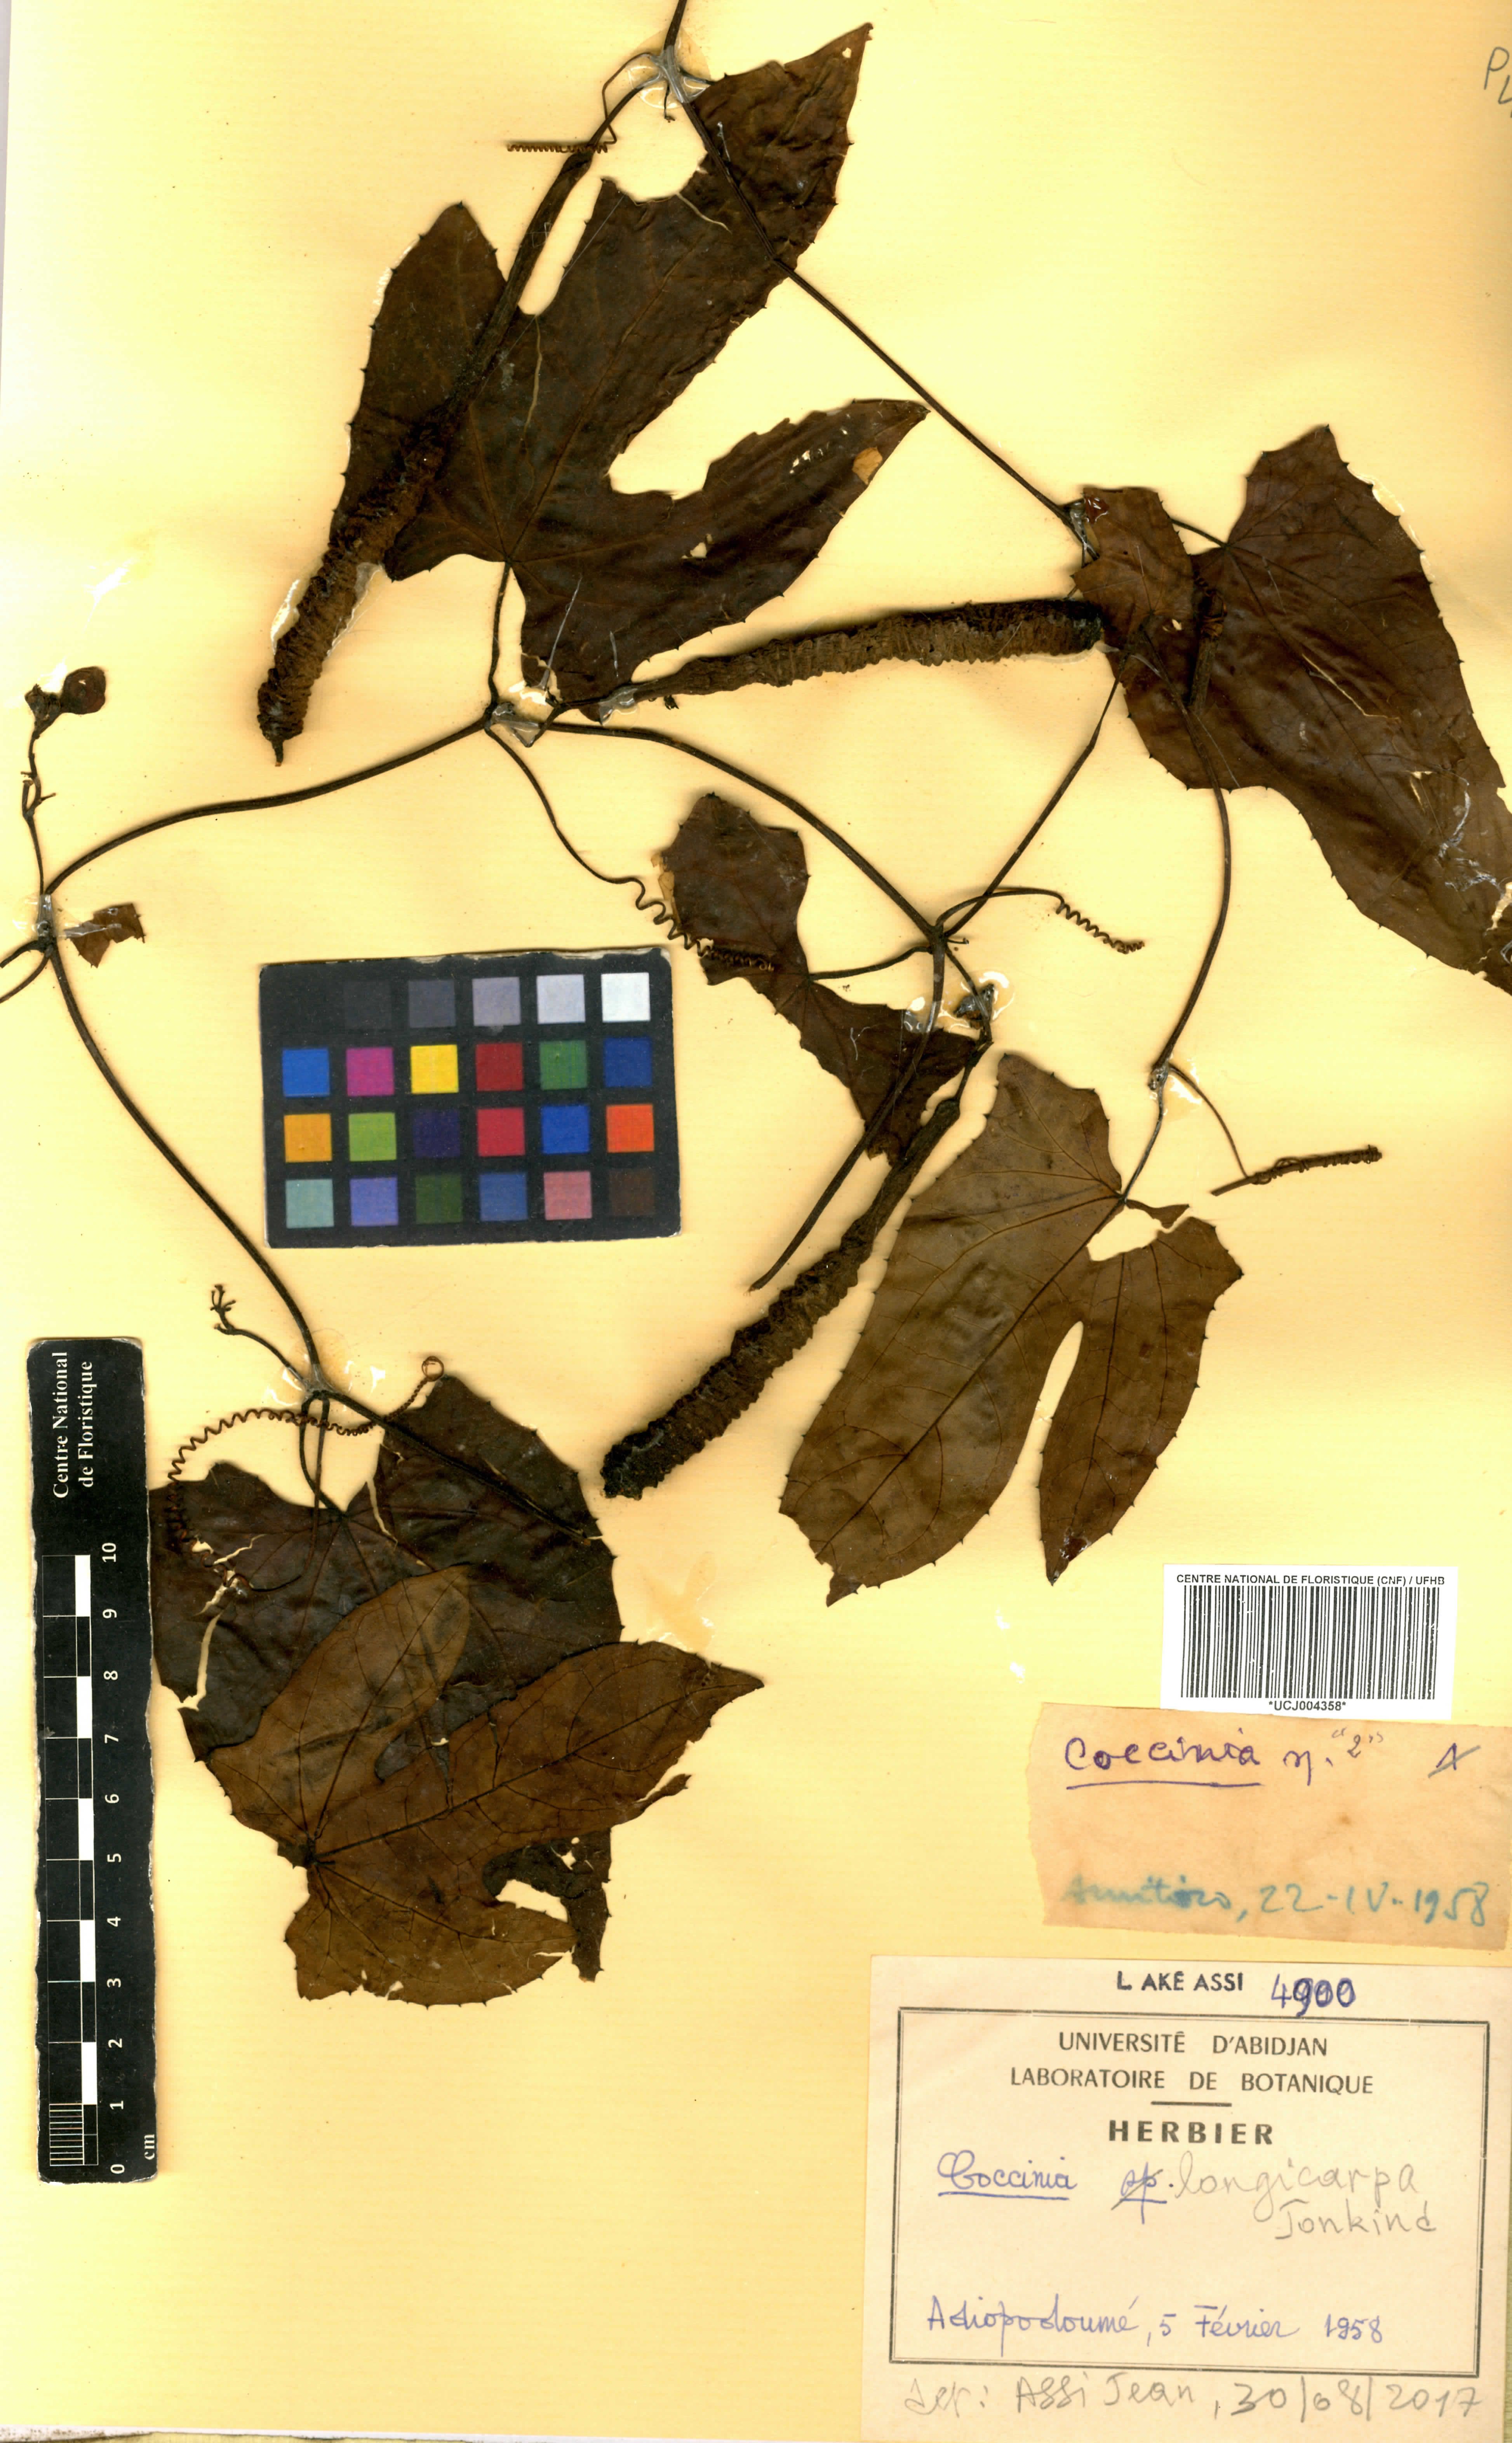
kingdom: Plantae
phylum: Tracheophyta
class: Magnoliopsida
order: Cucurbitales
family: Cucurbitaceae
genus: Coccinia
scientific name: Coccinia longicarpa
